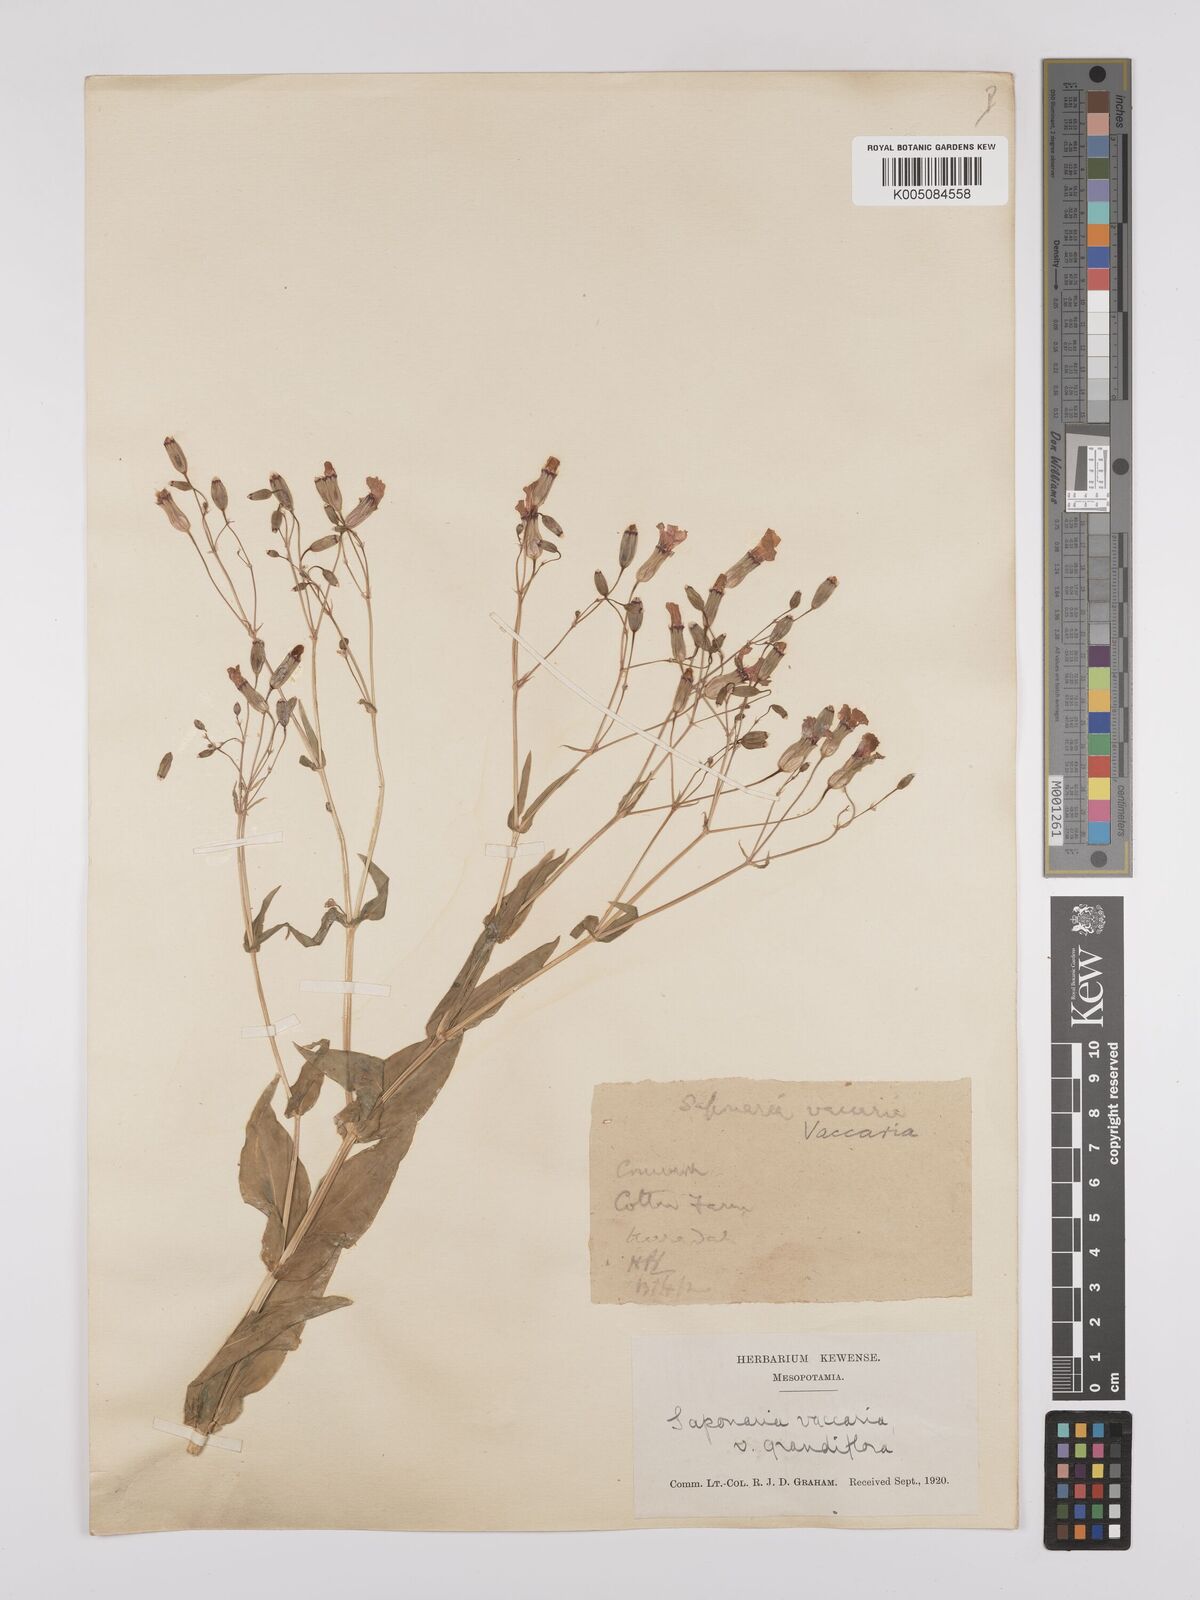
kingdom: Plantae
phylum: Tracheophyta
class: Magnoliopsida
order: Caryophyllales
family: Caryophyllaceae
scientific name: Caryophyllaceae
